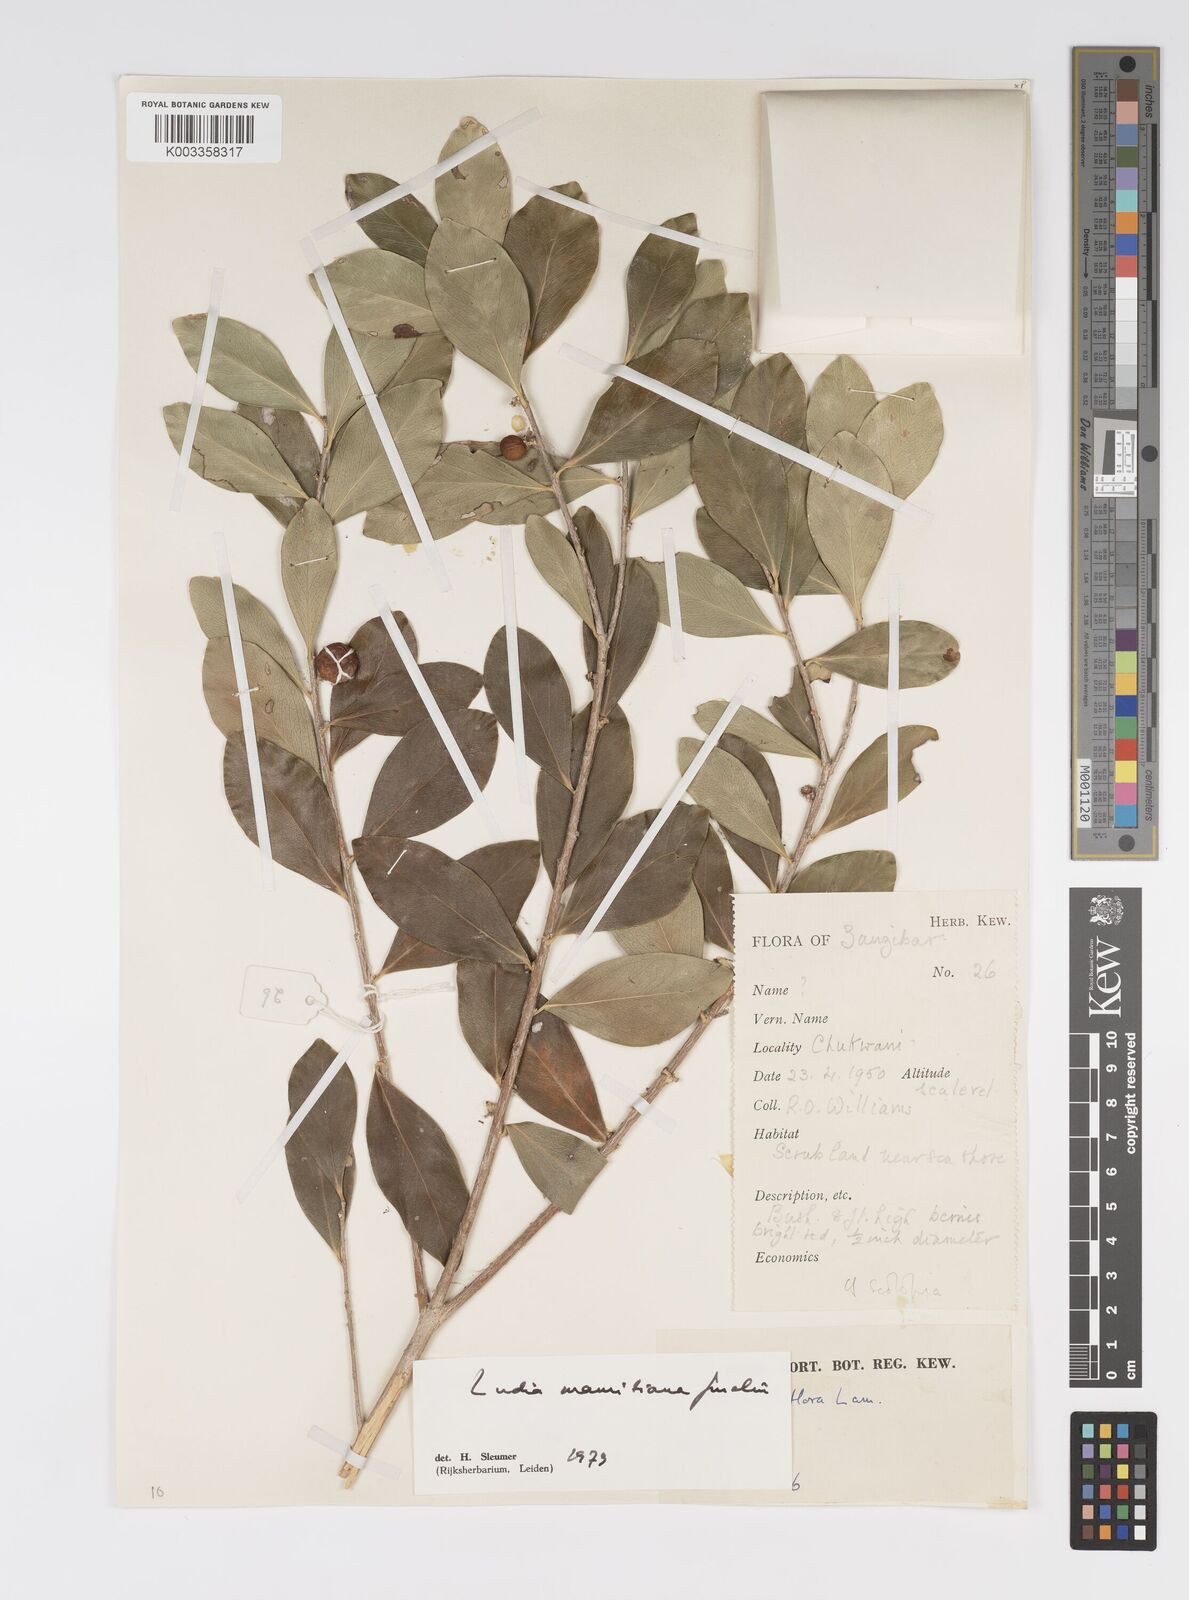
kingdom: Plantae
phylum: Tracheophyta
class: Magnoliopsida
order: Malpighiales
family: Salicaceae
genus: Ludia
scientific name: Ludia mauritiana
